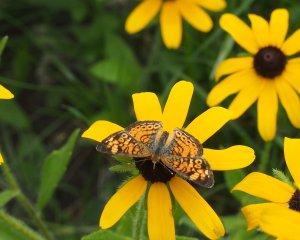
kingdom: Animalia
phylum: Arthropoda
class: Insecta
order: Lepidoptera
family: Nymphalidae
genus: Phyciodes
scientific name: Phyciodes
